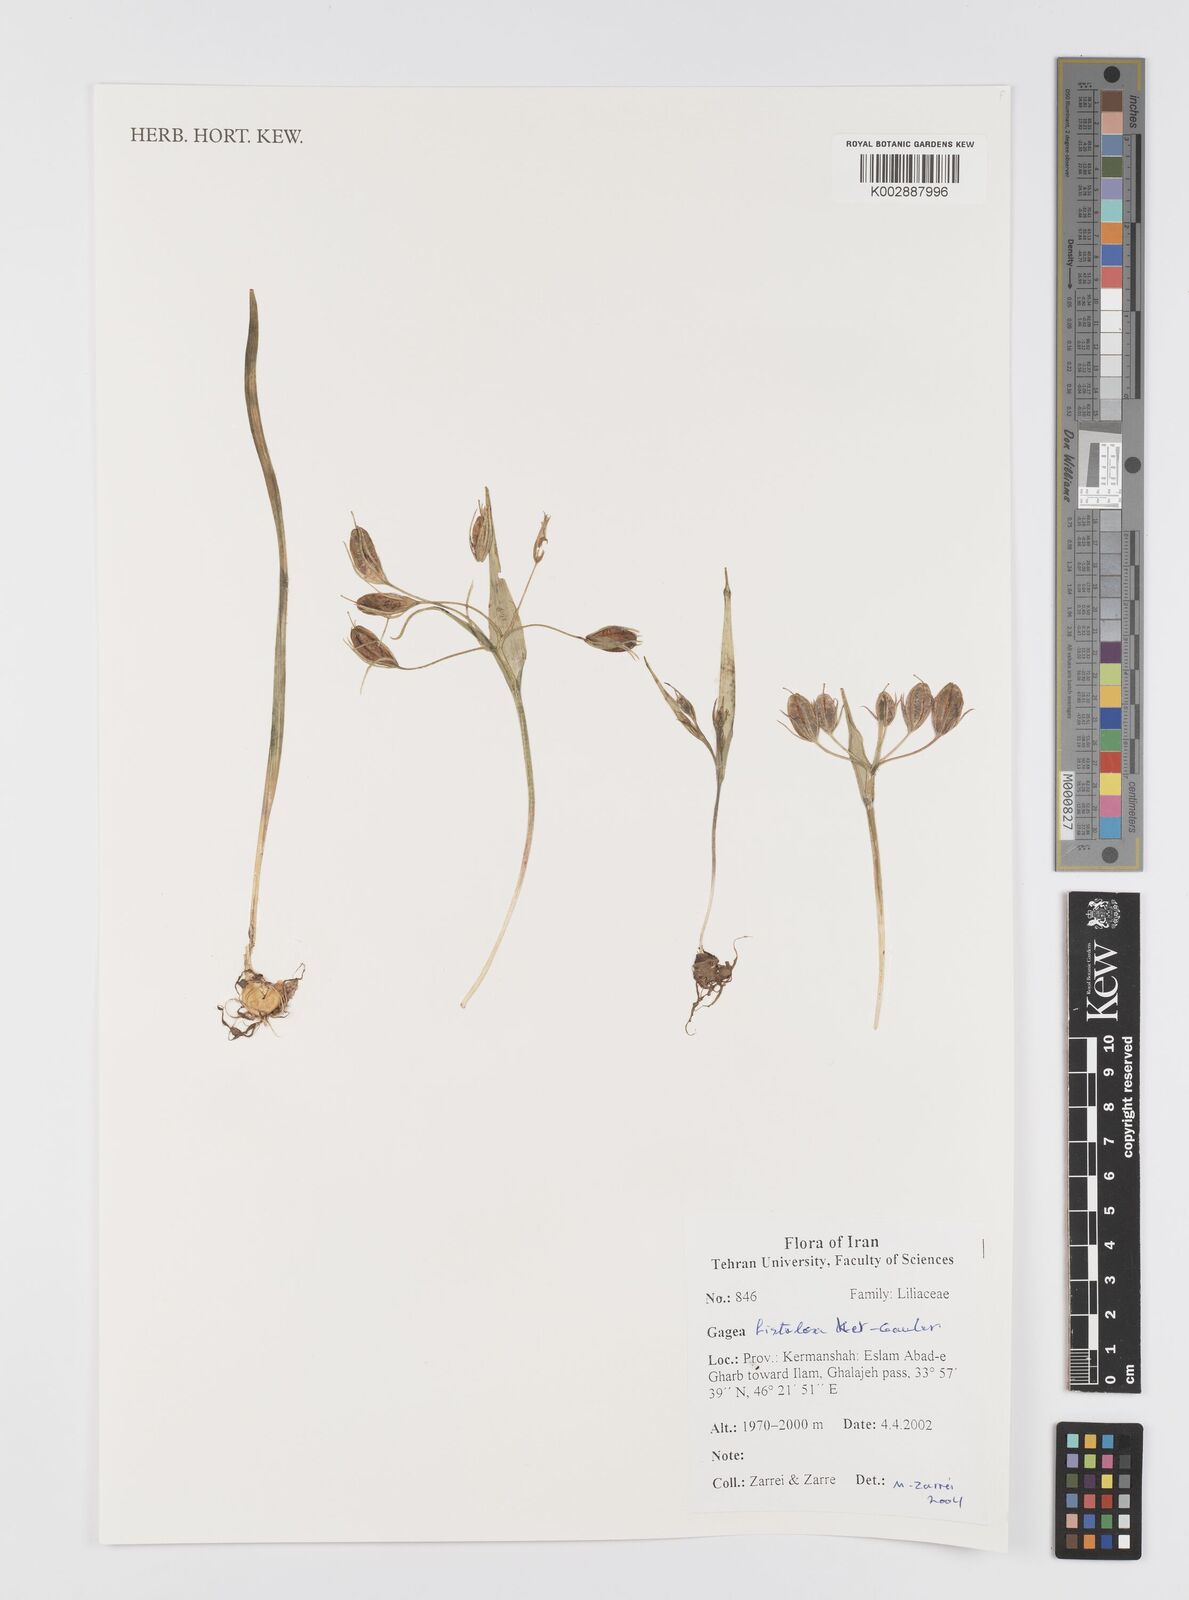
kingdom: Plantae
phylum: Tracheophyta
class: Liliopsida
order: Liliales
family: Liliaceae
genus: Gagea
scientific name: Gagea bohemica
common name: Early star-of-bethlehem
